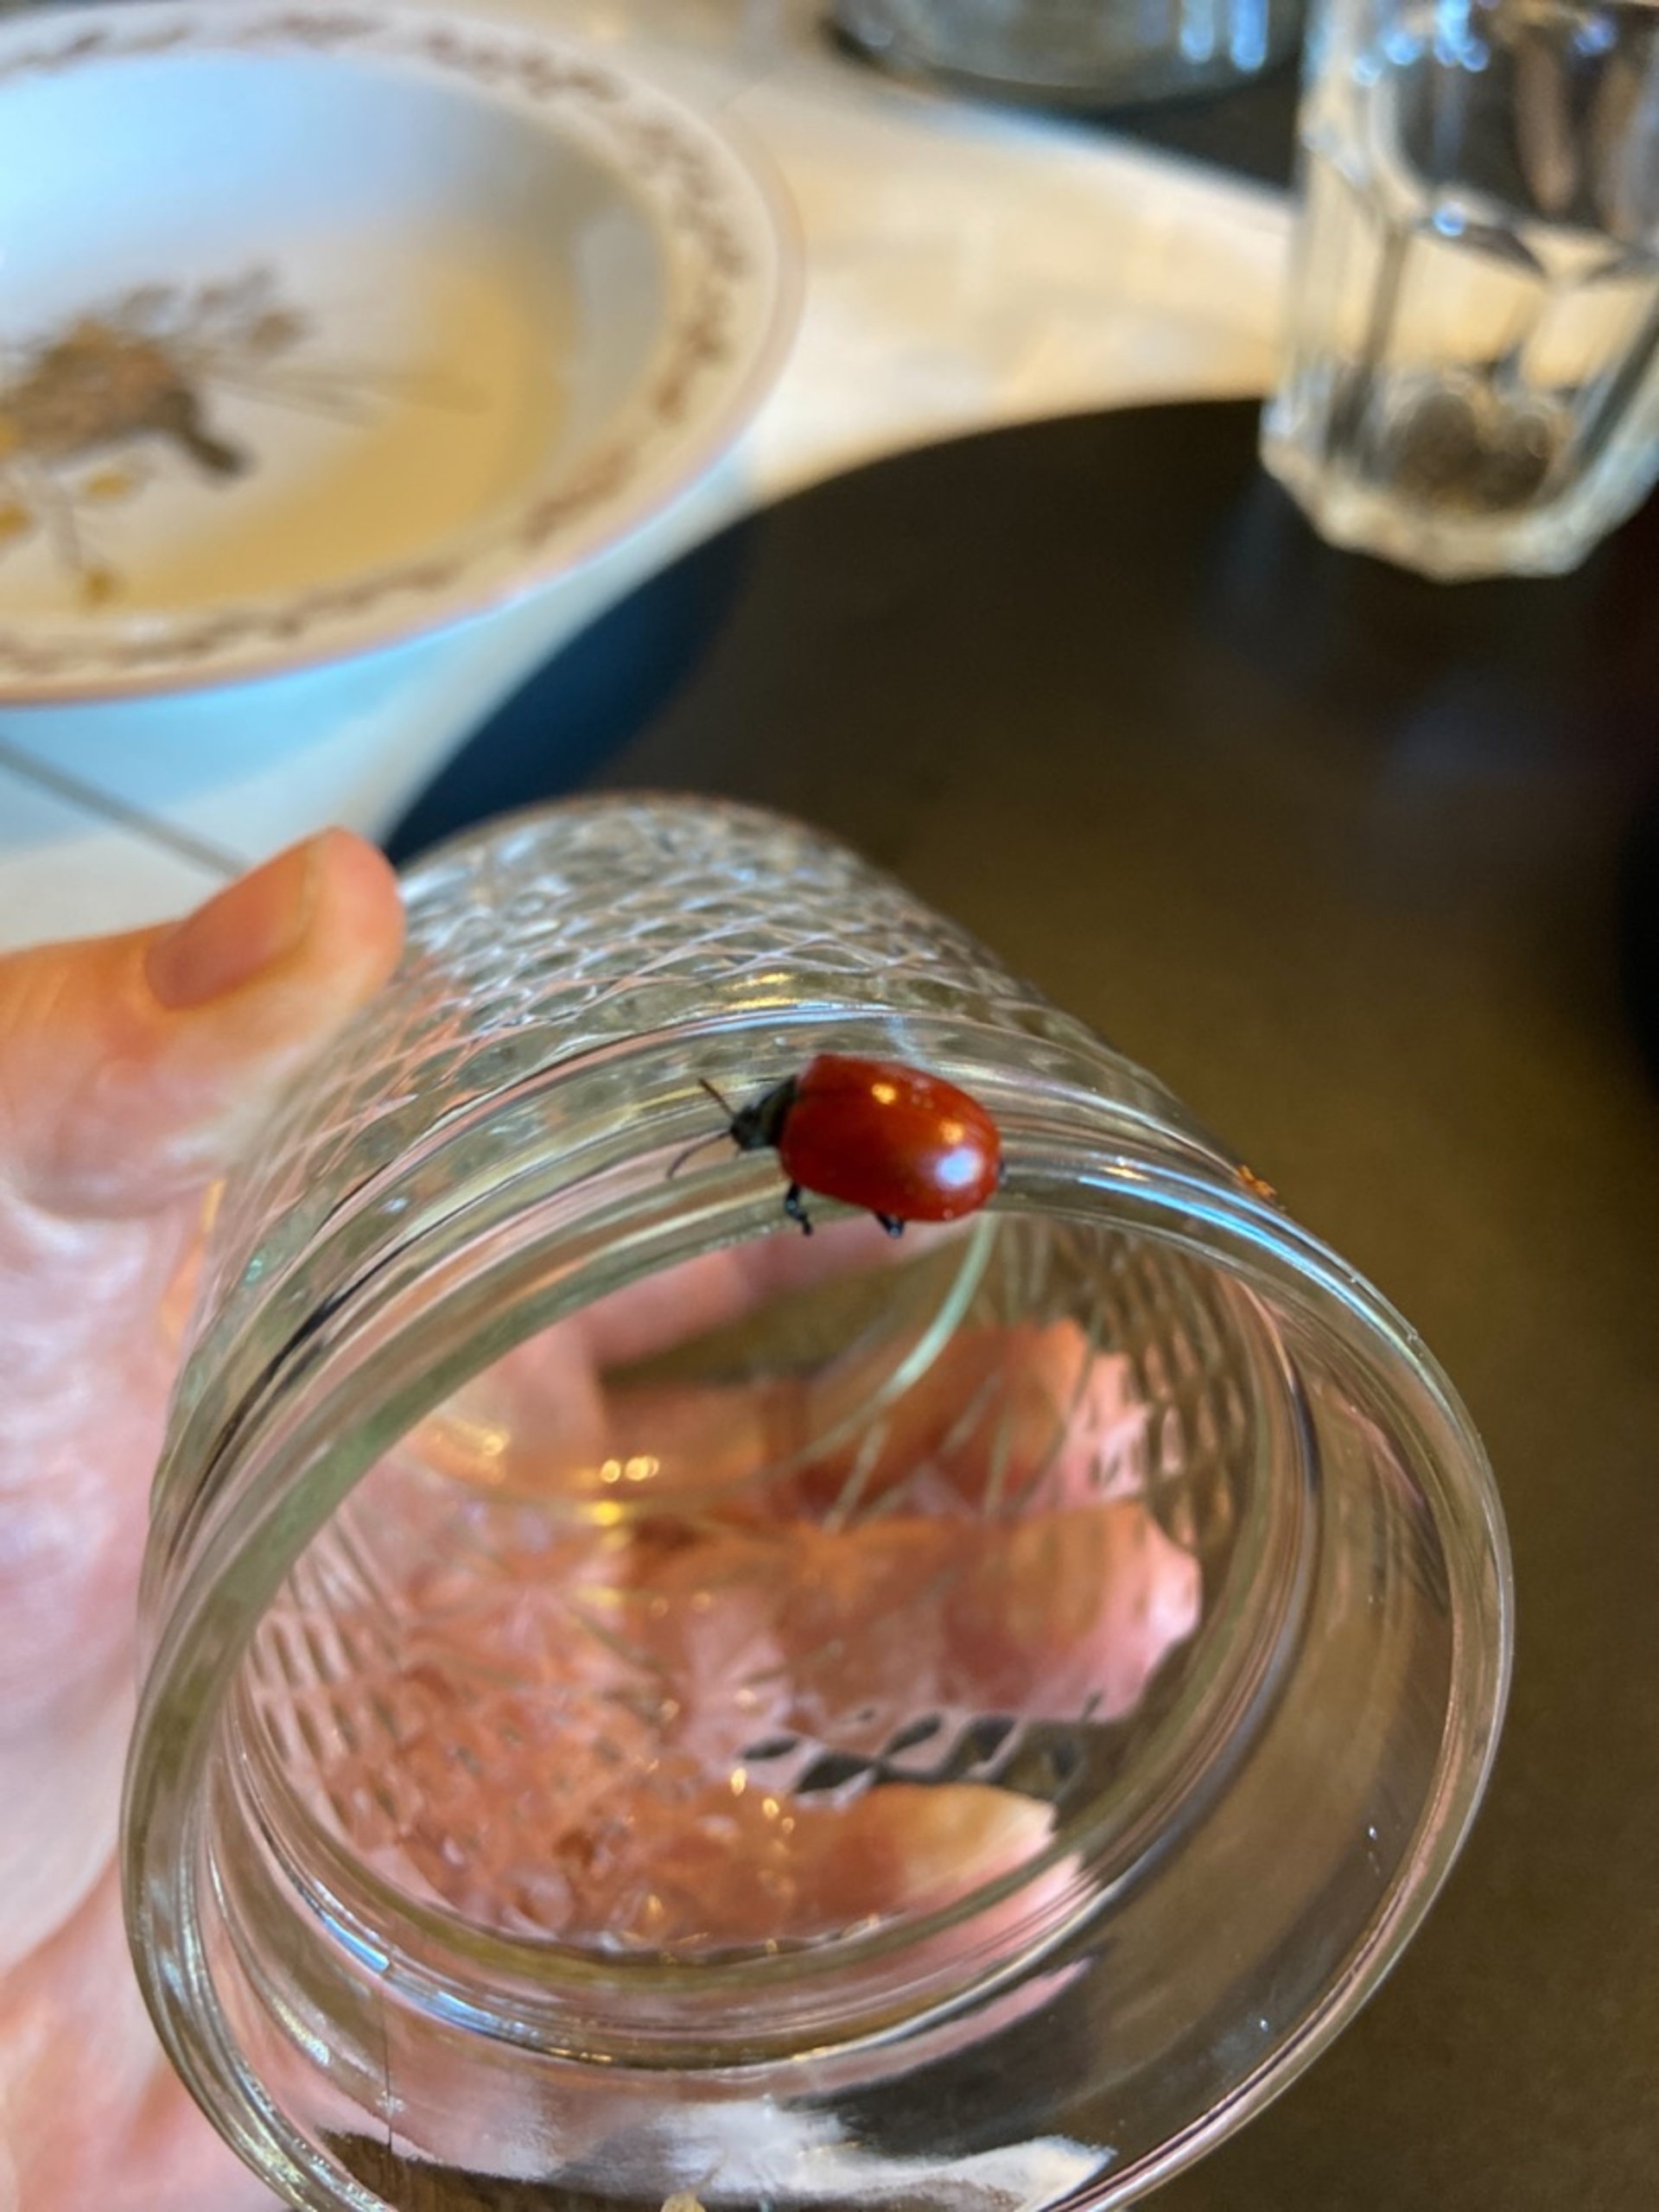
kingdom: Animalia
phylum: Arthropoda
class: Insecta
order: Coleoptera
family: Chrysomelidae
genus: Chrysomela
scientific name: Chrysomela populi
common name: Poppelbladbille
